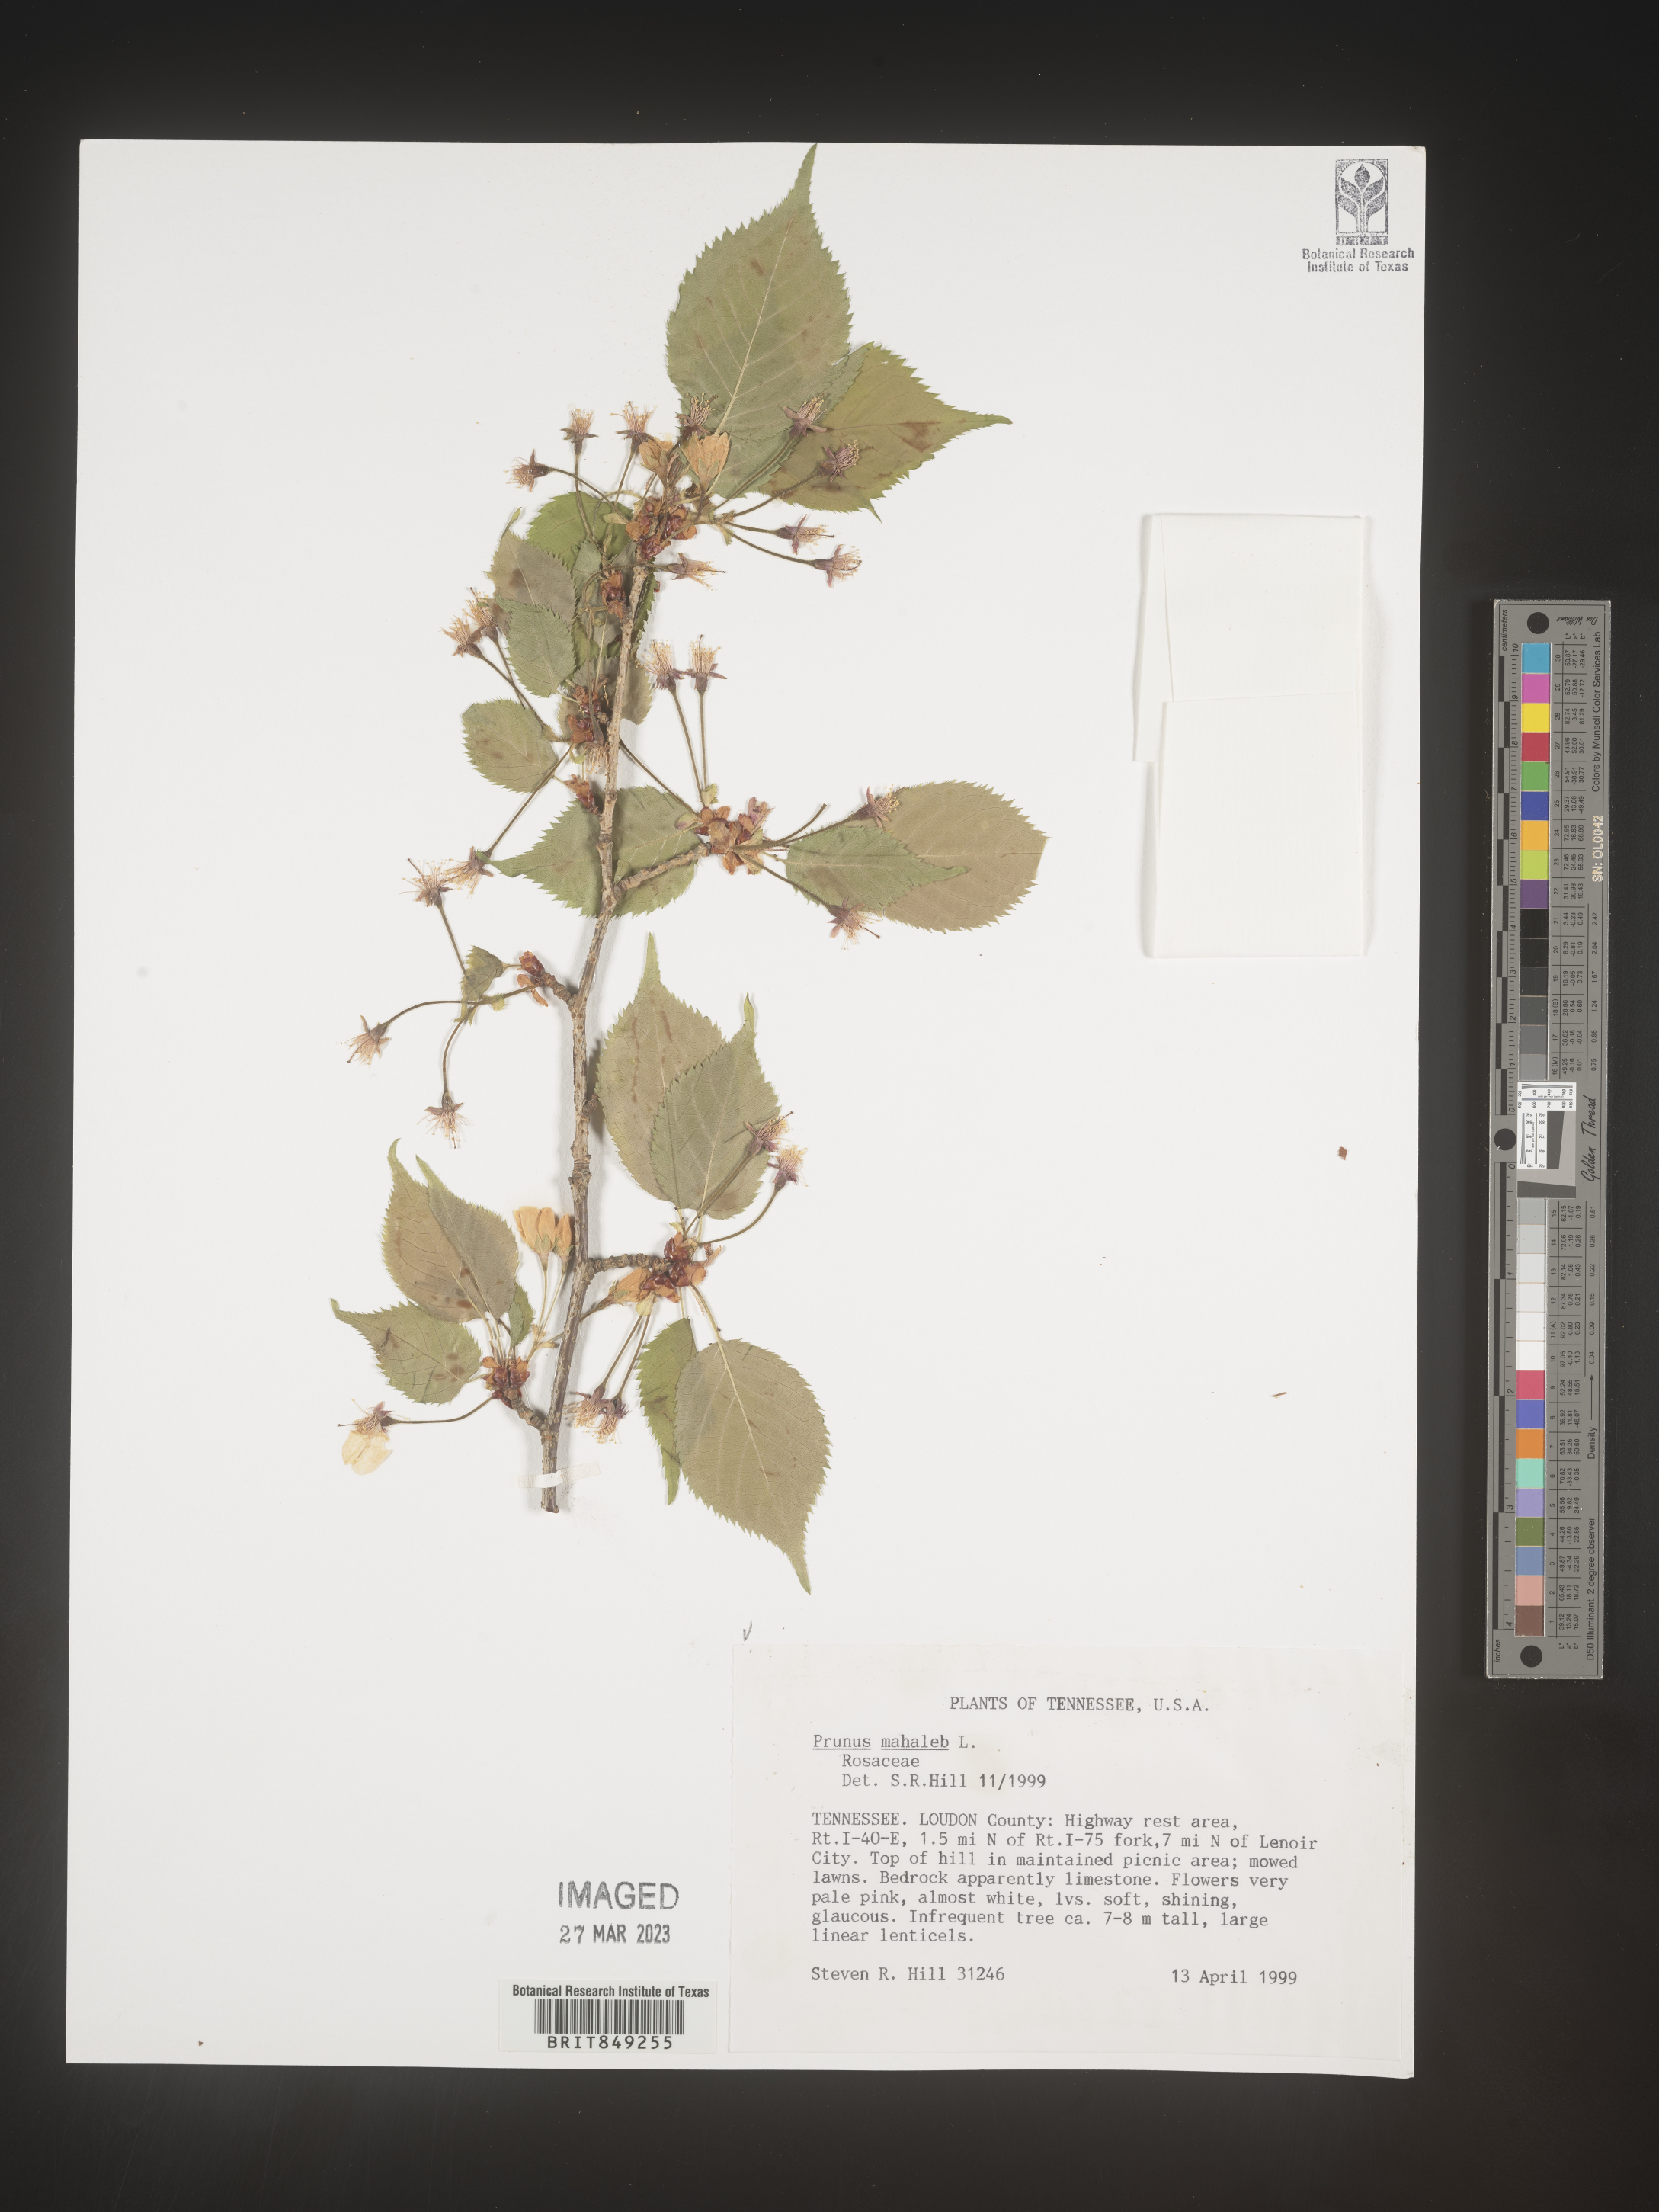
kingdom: Plantae
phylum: Tracheophyta
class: Magnoliopsida
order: Rosales
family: Rosaceae
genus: Prunus
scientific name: Prunus
